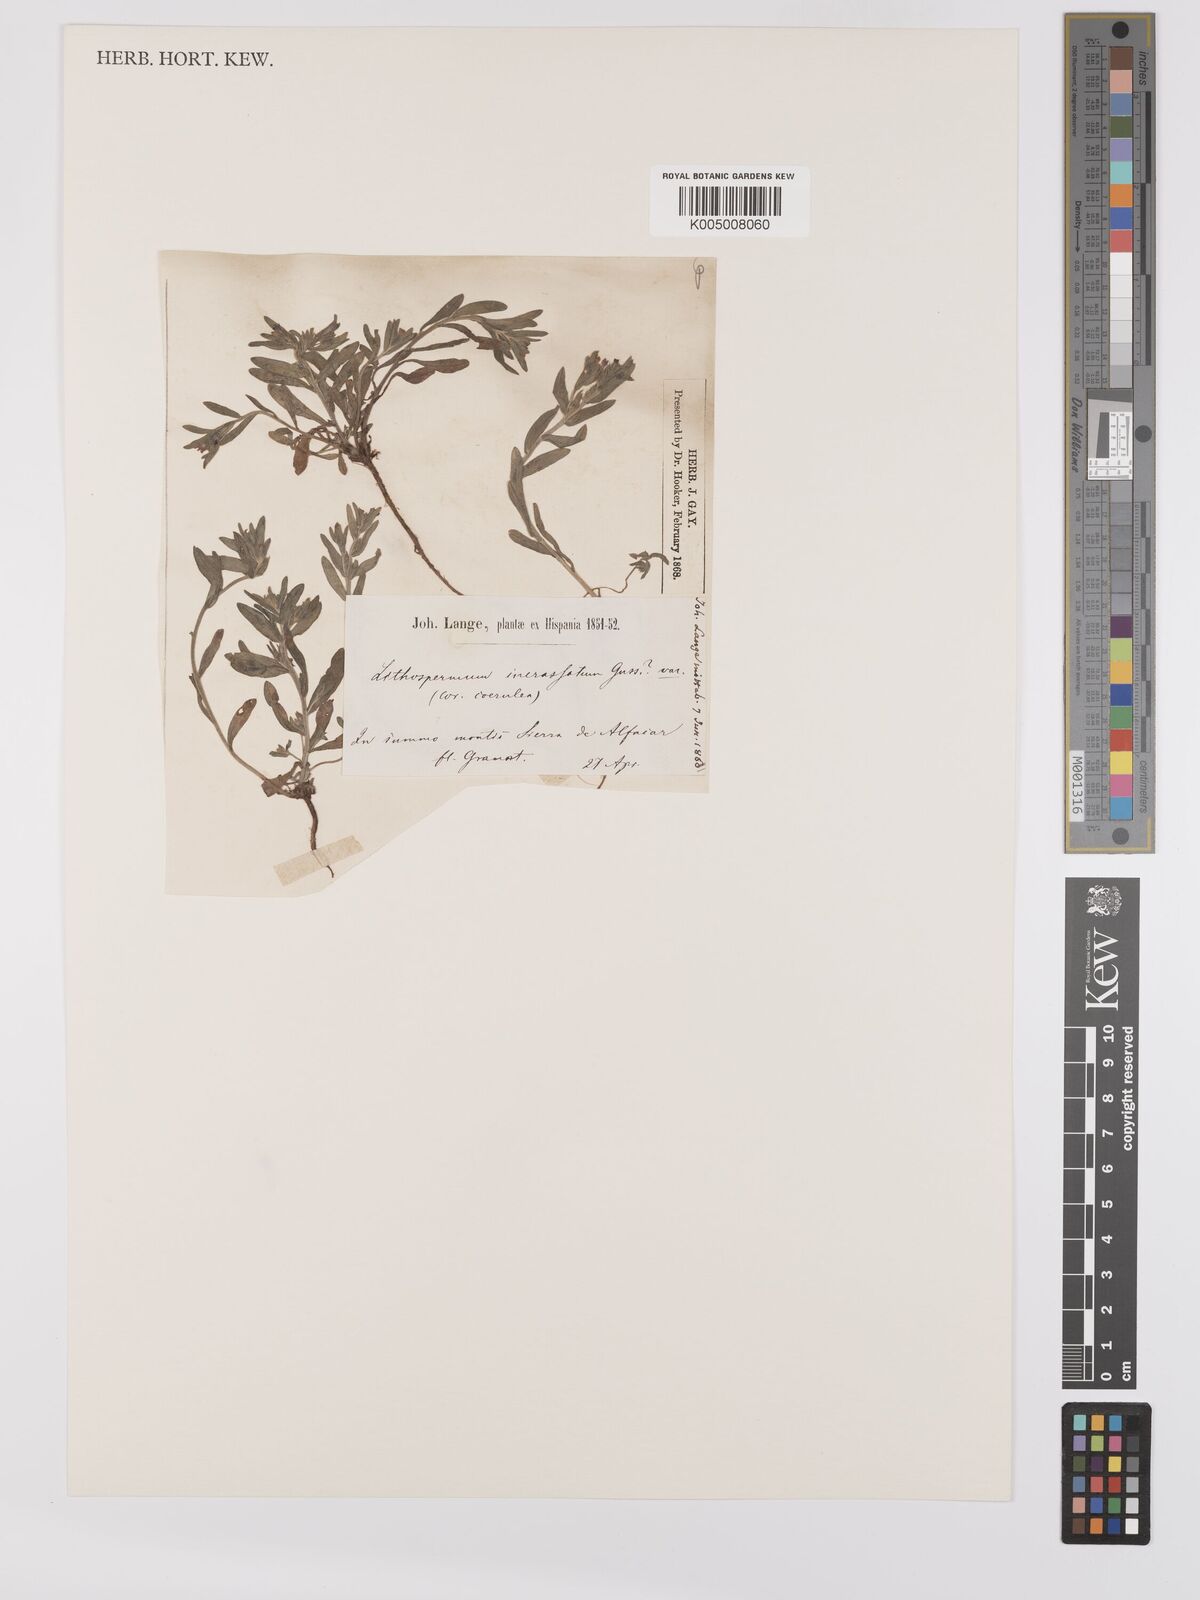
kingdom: Plantae
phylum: Tracheophyta
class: Magnoliopsida
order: Boraginales
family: Boraginaceae
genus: Buglossoides
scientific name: Buglossoides incrassata
